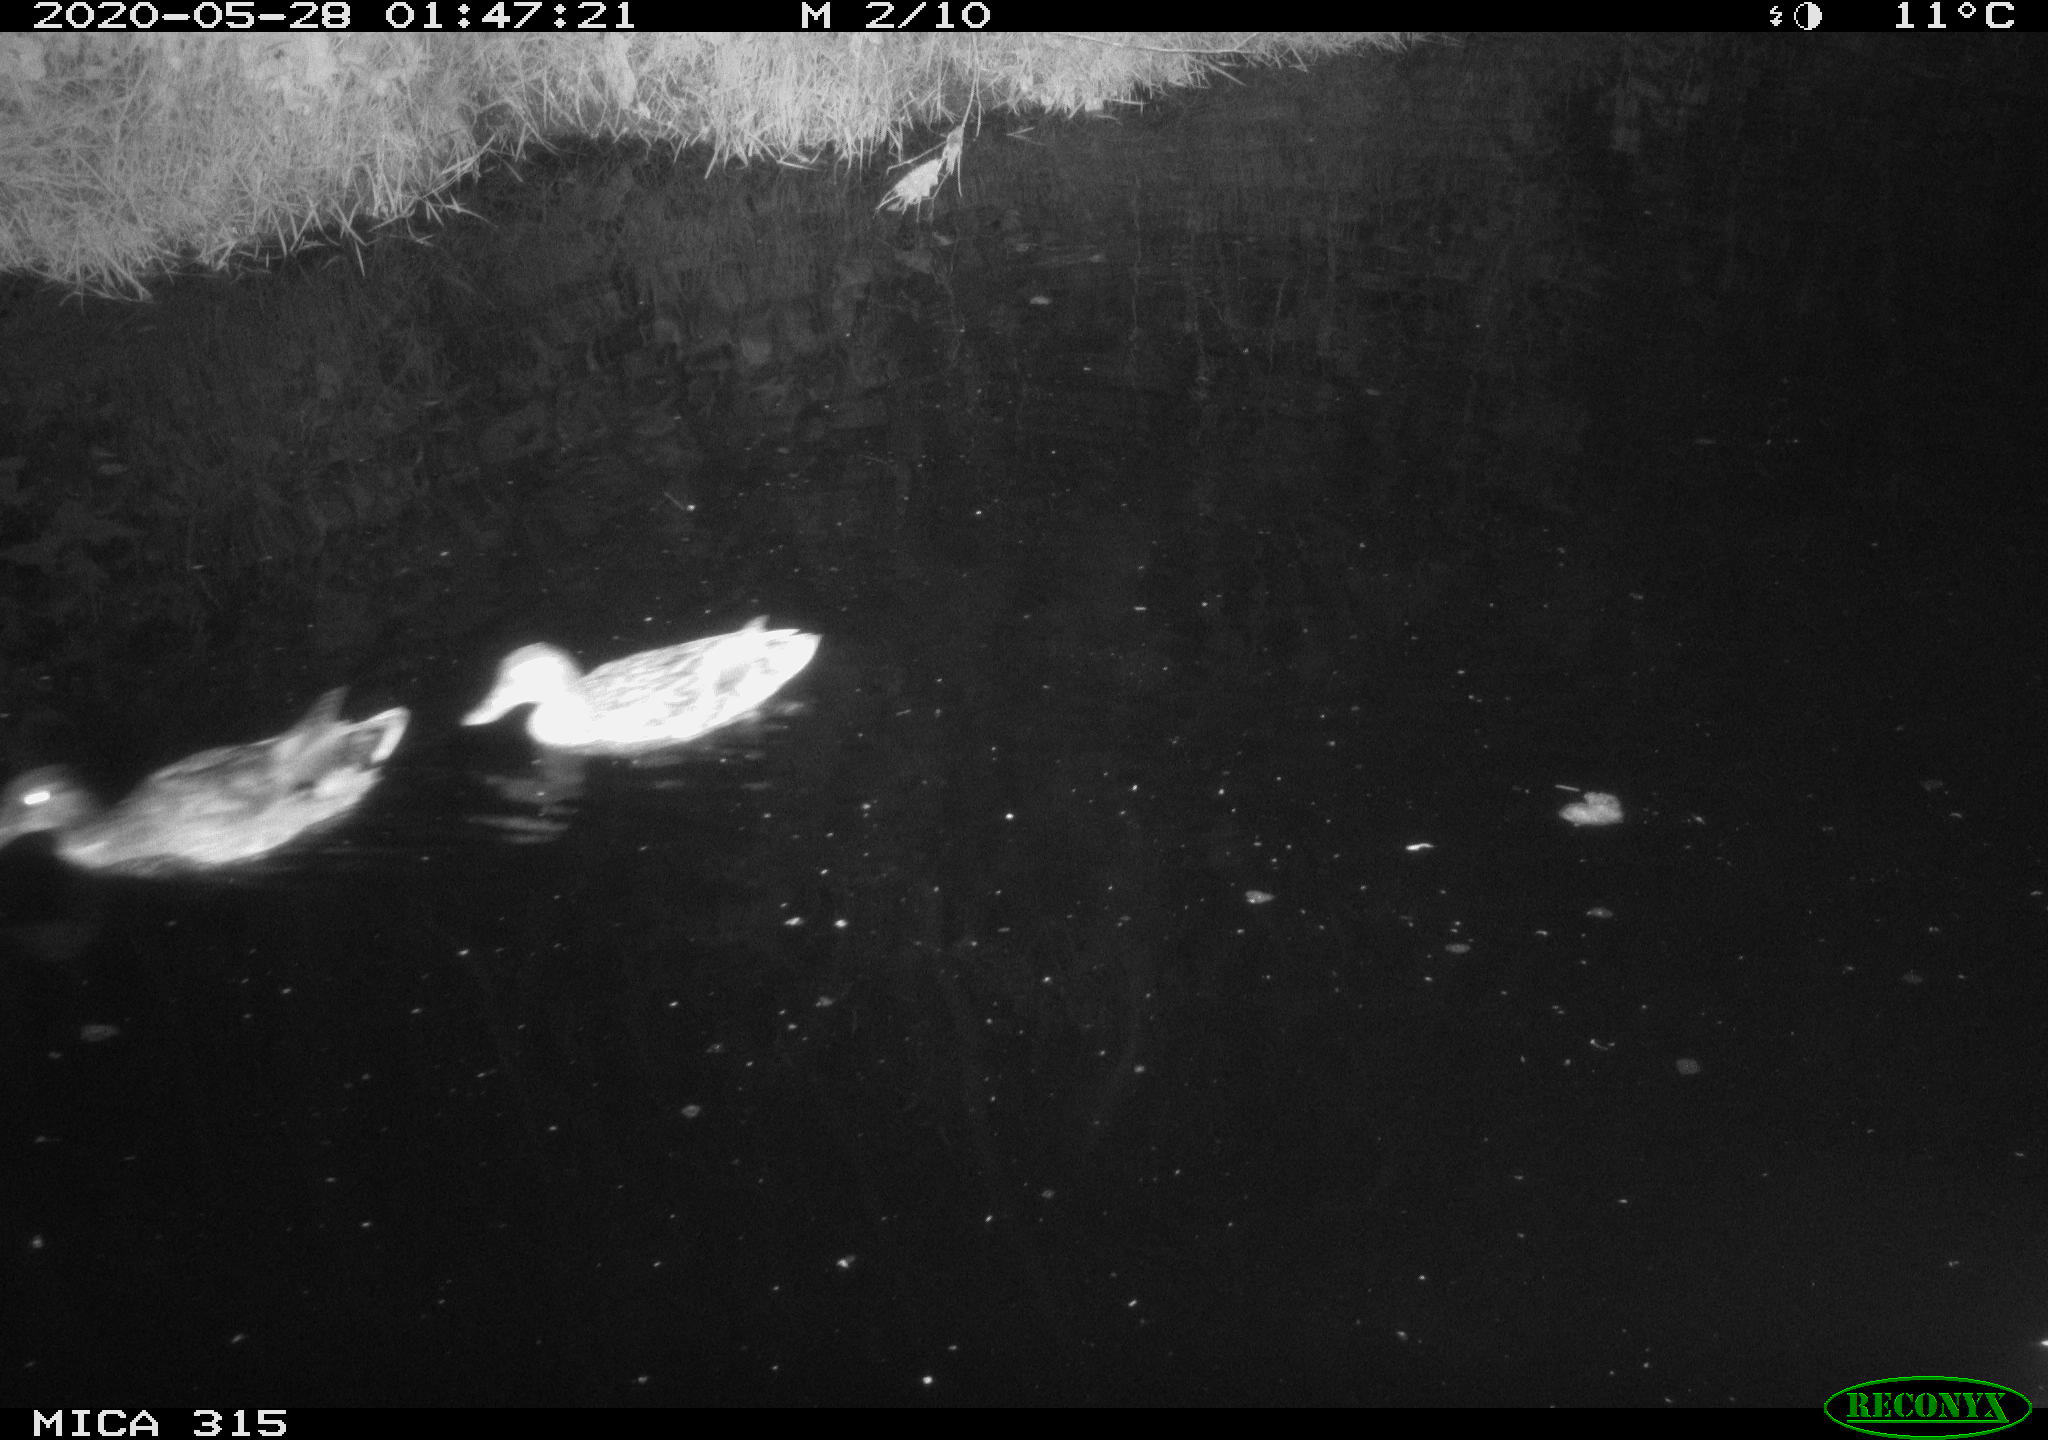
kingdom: Animalia
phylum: Chordata
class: Aves
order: Anseriformes
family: Anatidae
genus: Anas
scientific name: Anas platyrhynchos
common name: Mallard
